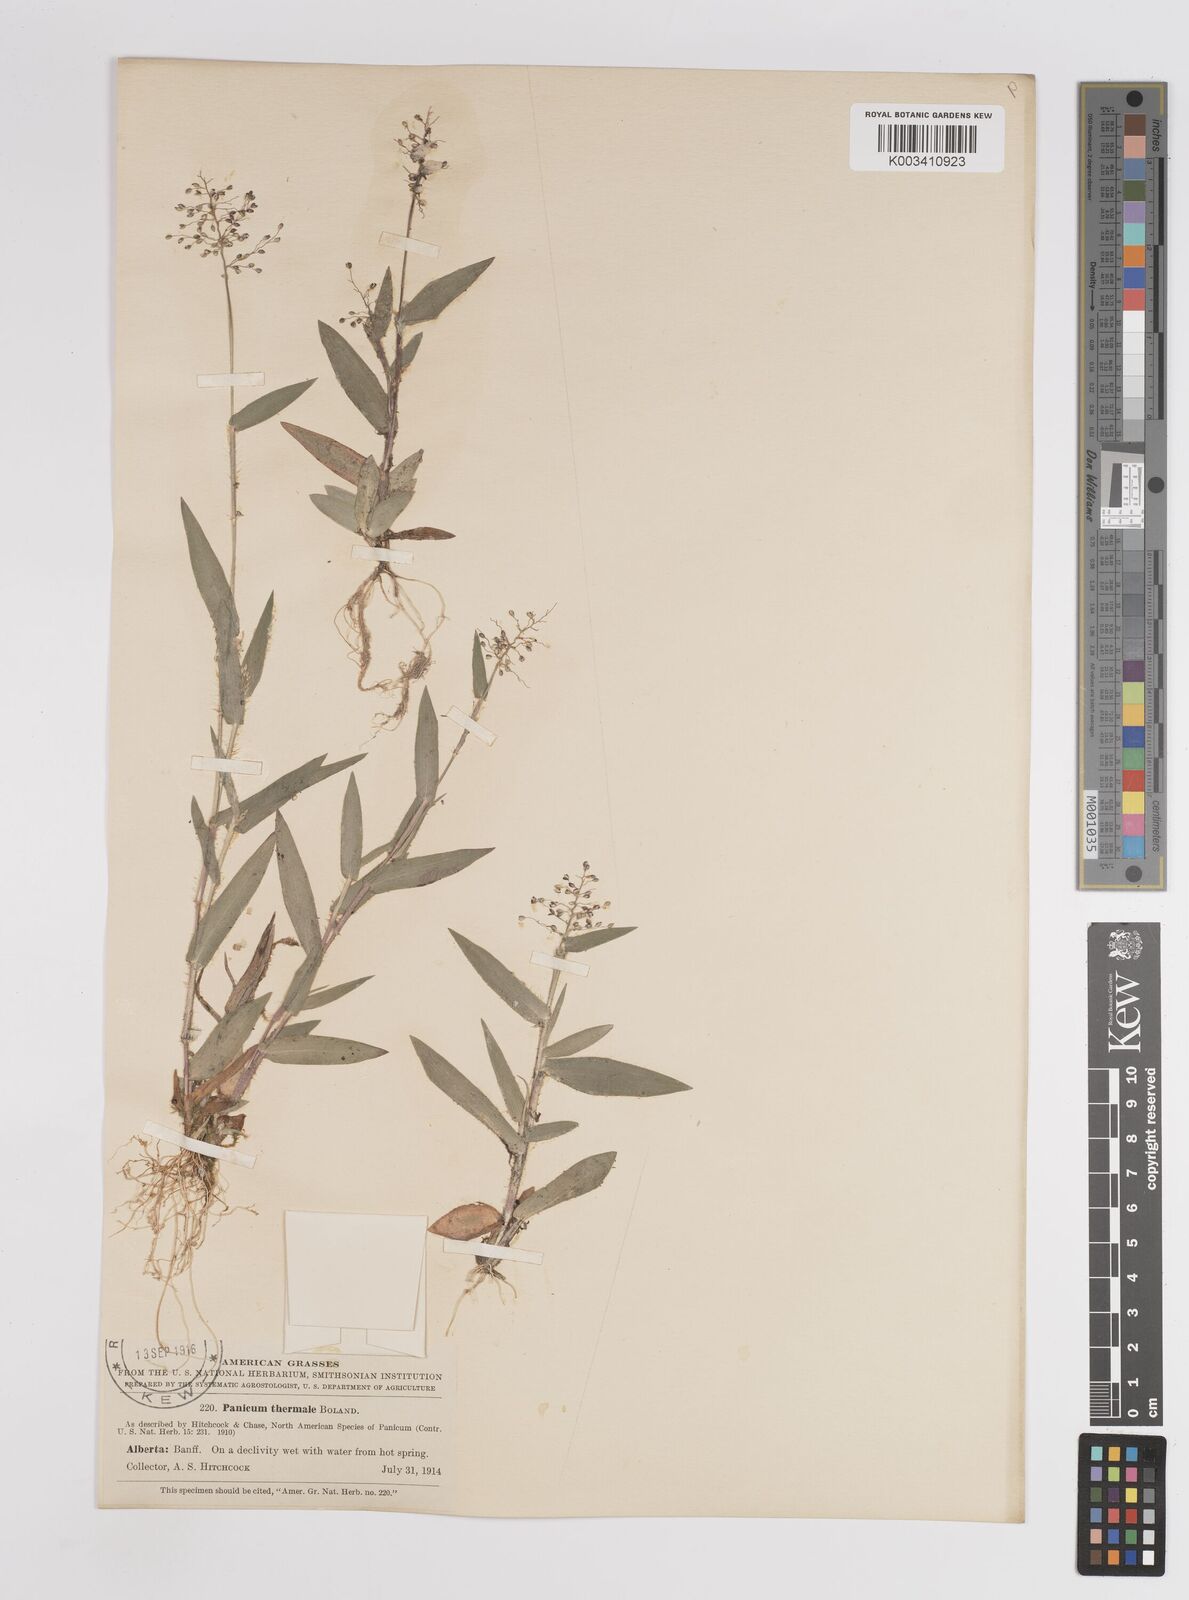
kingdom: Plantae
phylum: Tracheophyta
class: Liliopsida
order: Poales
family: Poaceae
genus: Dichanthelium
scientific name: Dichanthelium thermale
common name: Geyser panicgrass
